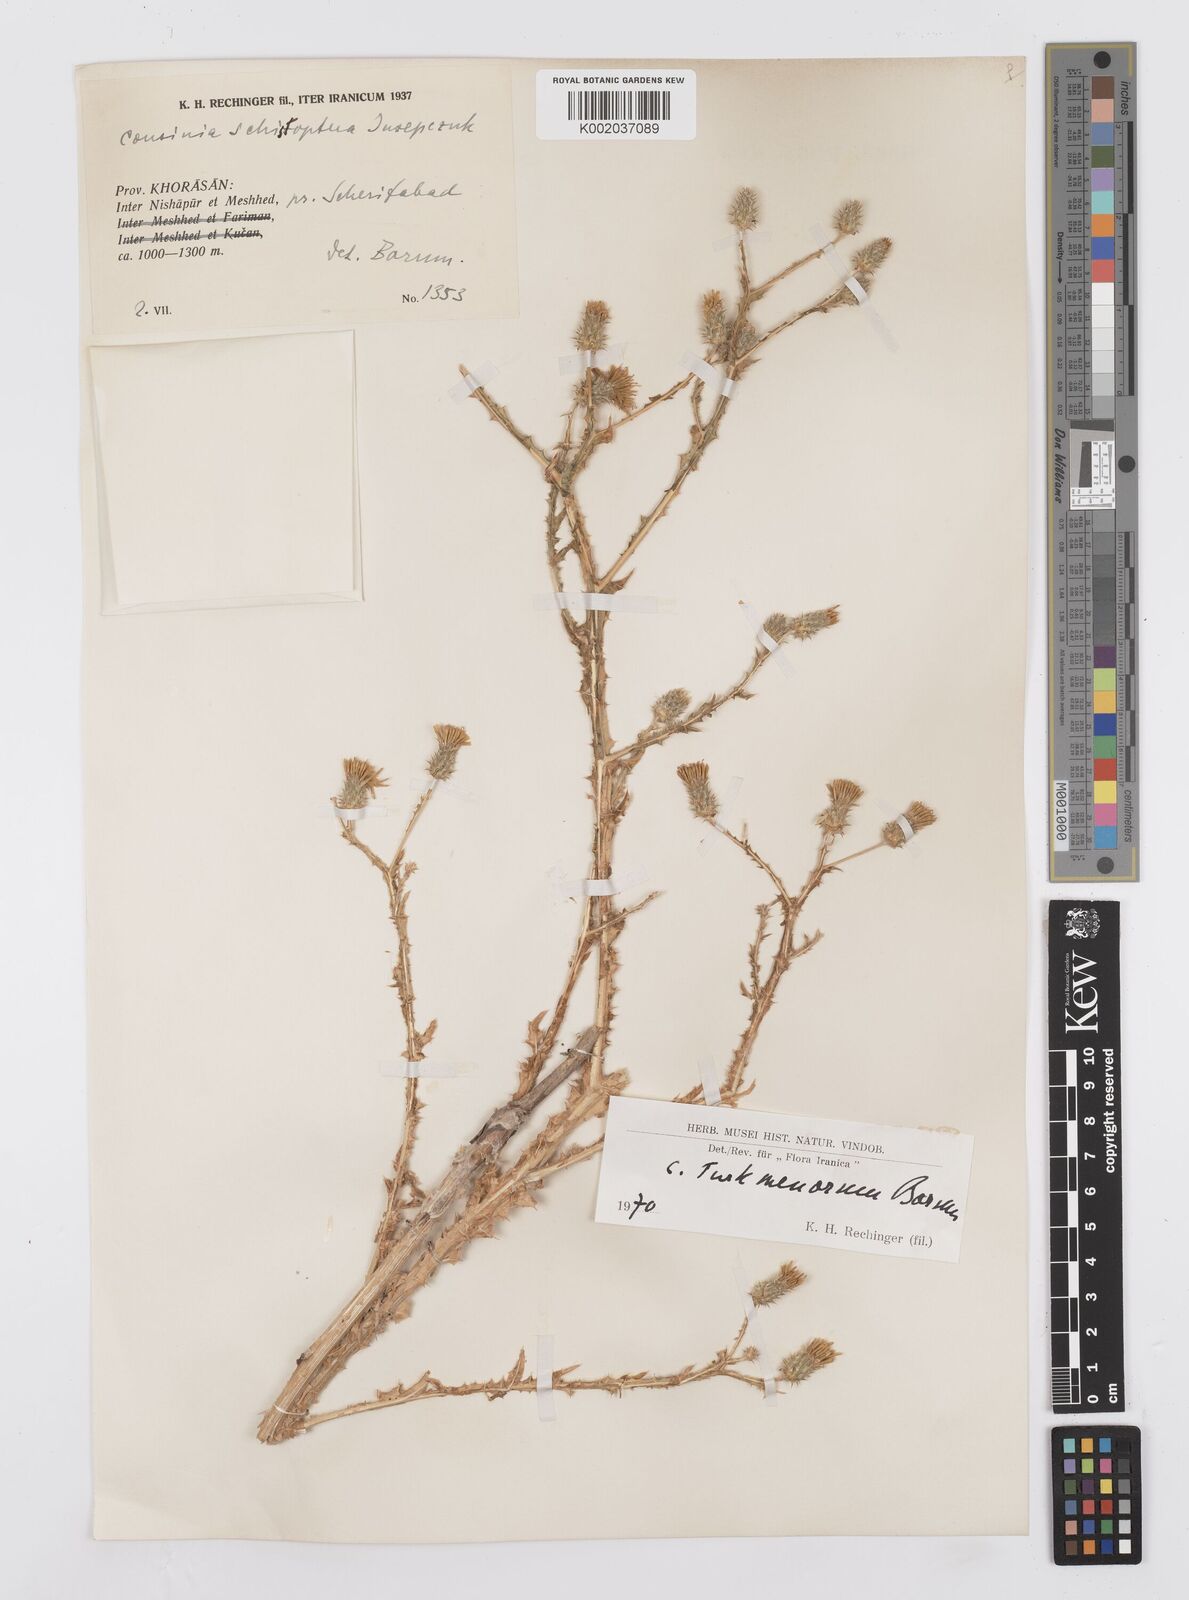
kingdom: Plantae
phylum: Tracheophyta
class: Magnoliopsida
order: Asterales
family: Asteraceae
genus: Cousinia
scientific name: Cousinia turkmenorum
